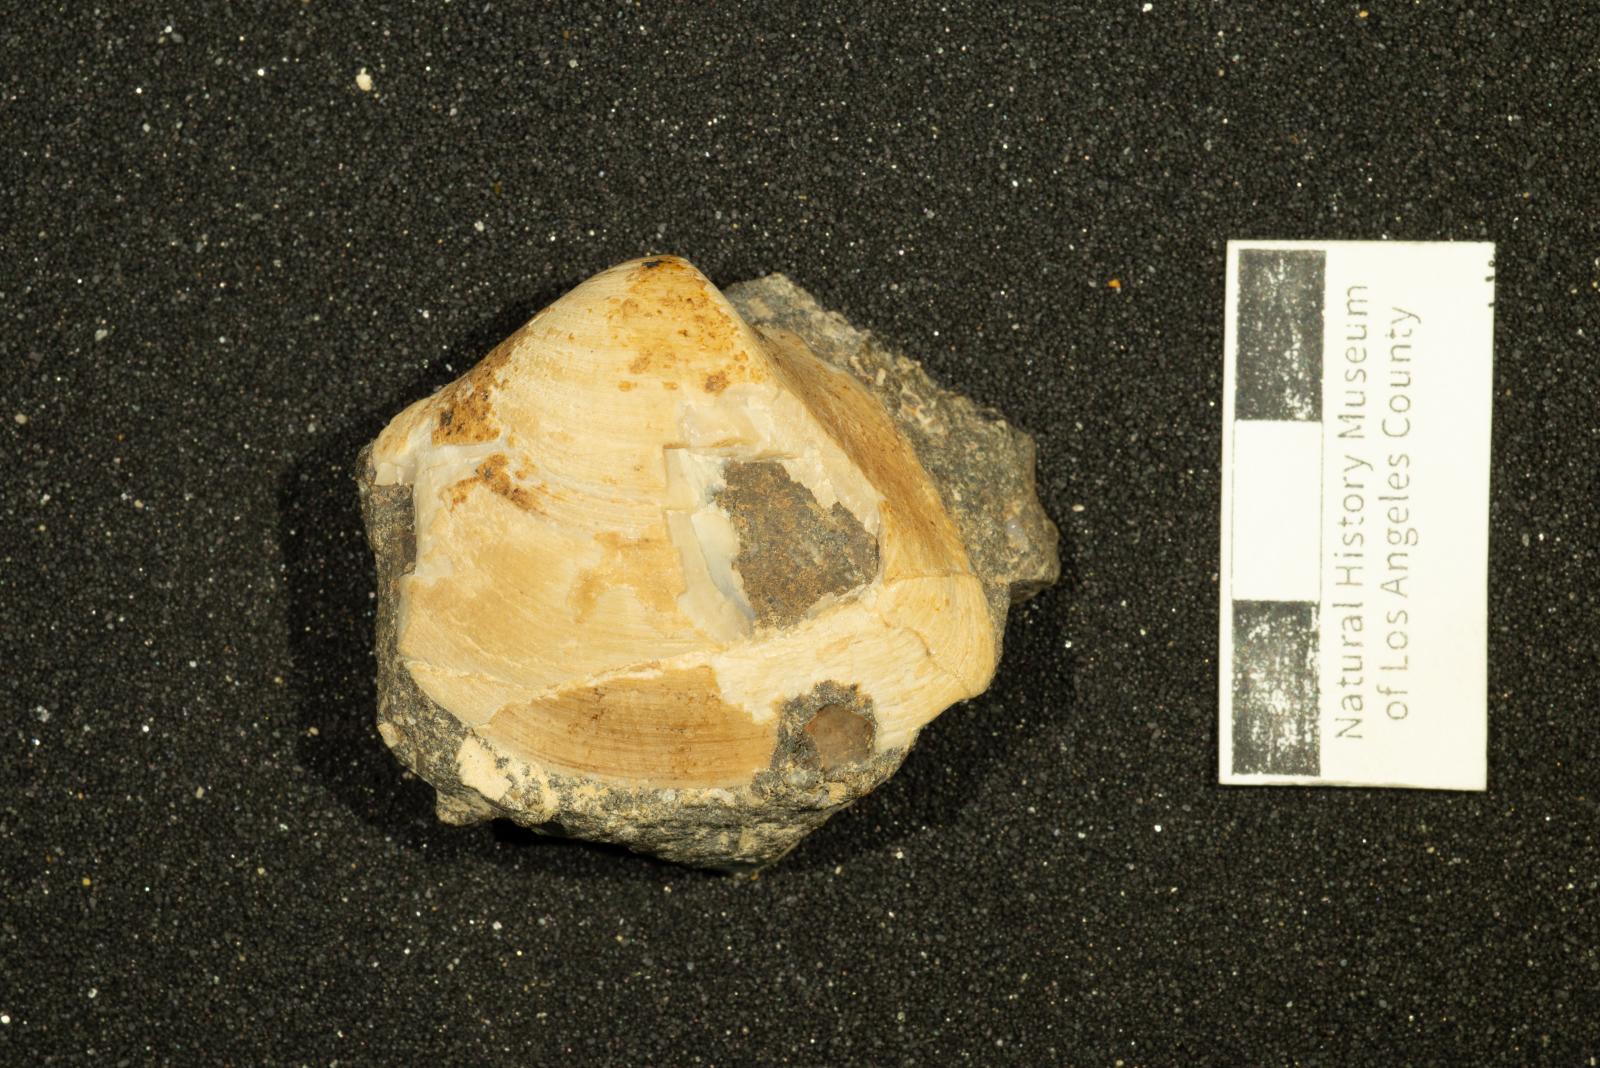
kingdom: Animalia
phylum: Mollusca
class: Bivalvia
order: Arcida
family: Arcidae
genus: Trigonarca
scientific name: Trigonarca
